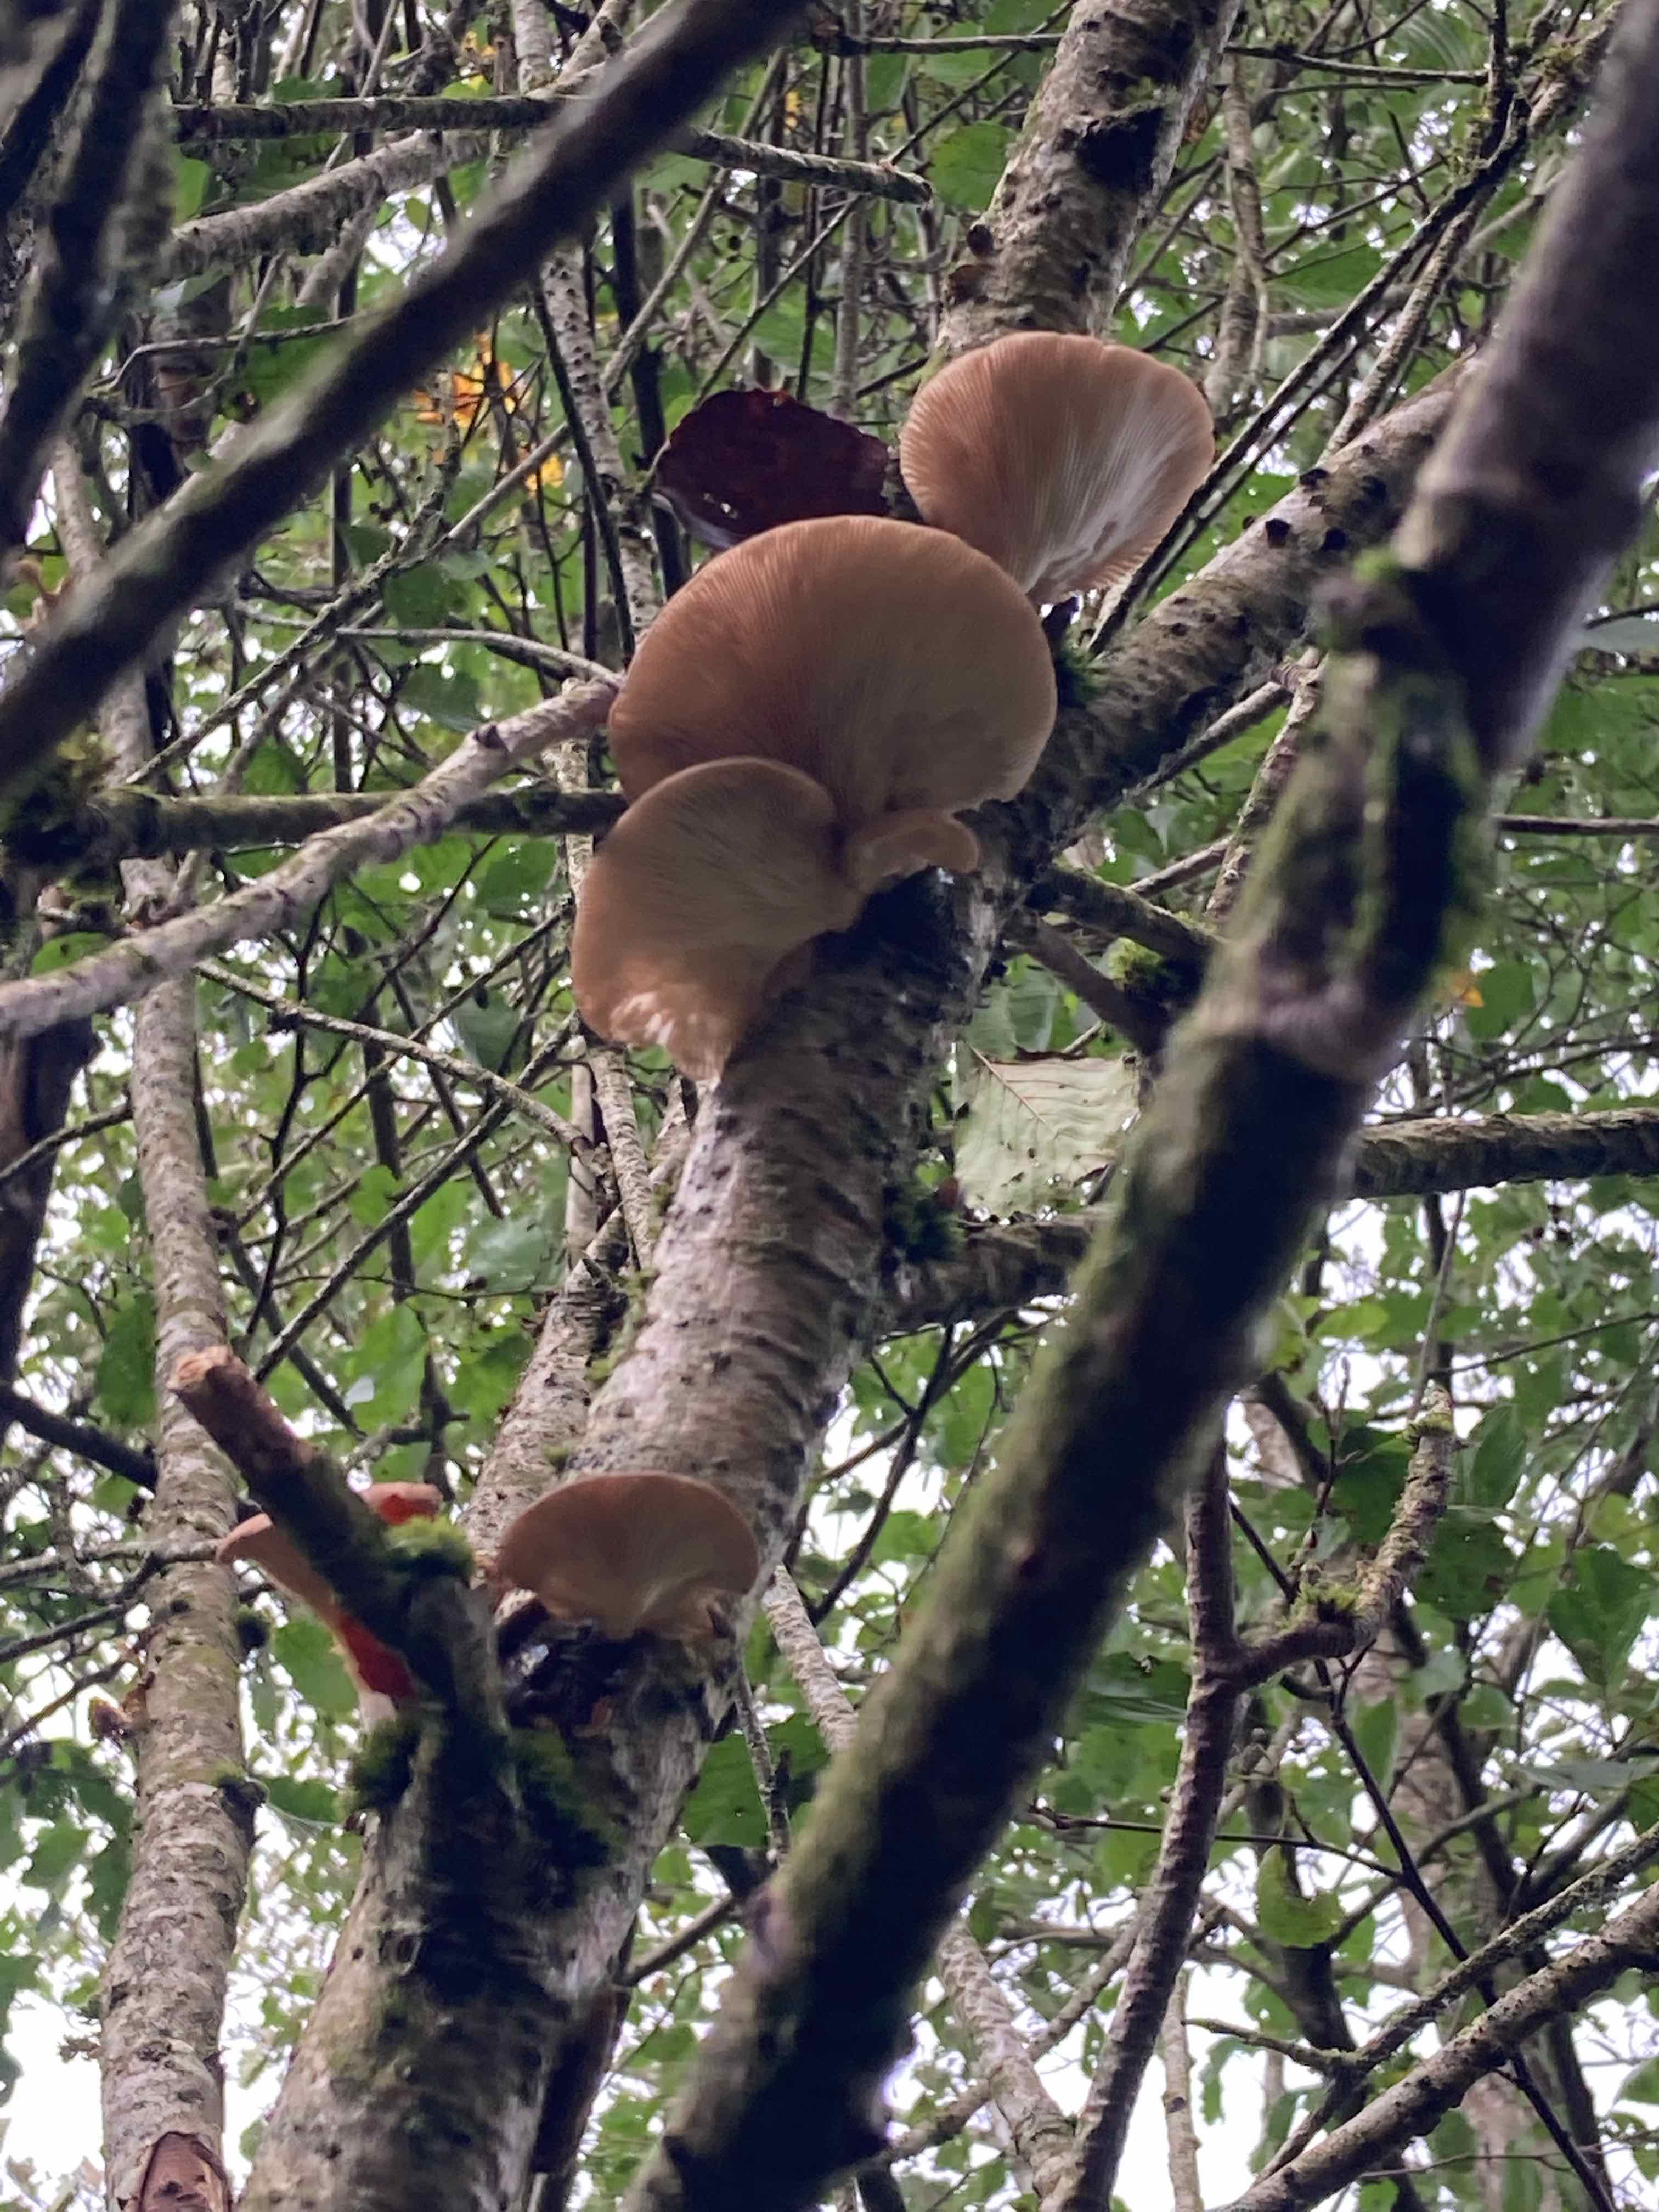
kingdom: Fungi
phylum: Basidiomycota
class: Agaricomycetes
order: Agaricales
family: Pleurotaceae
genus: Pleurotus
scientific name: Pleurotus ostreatus
